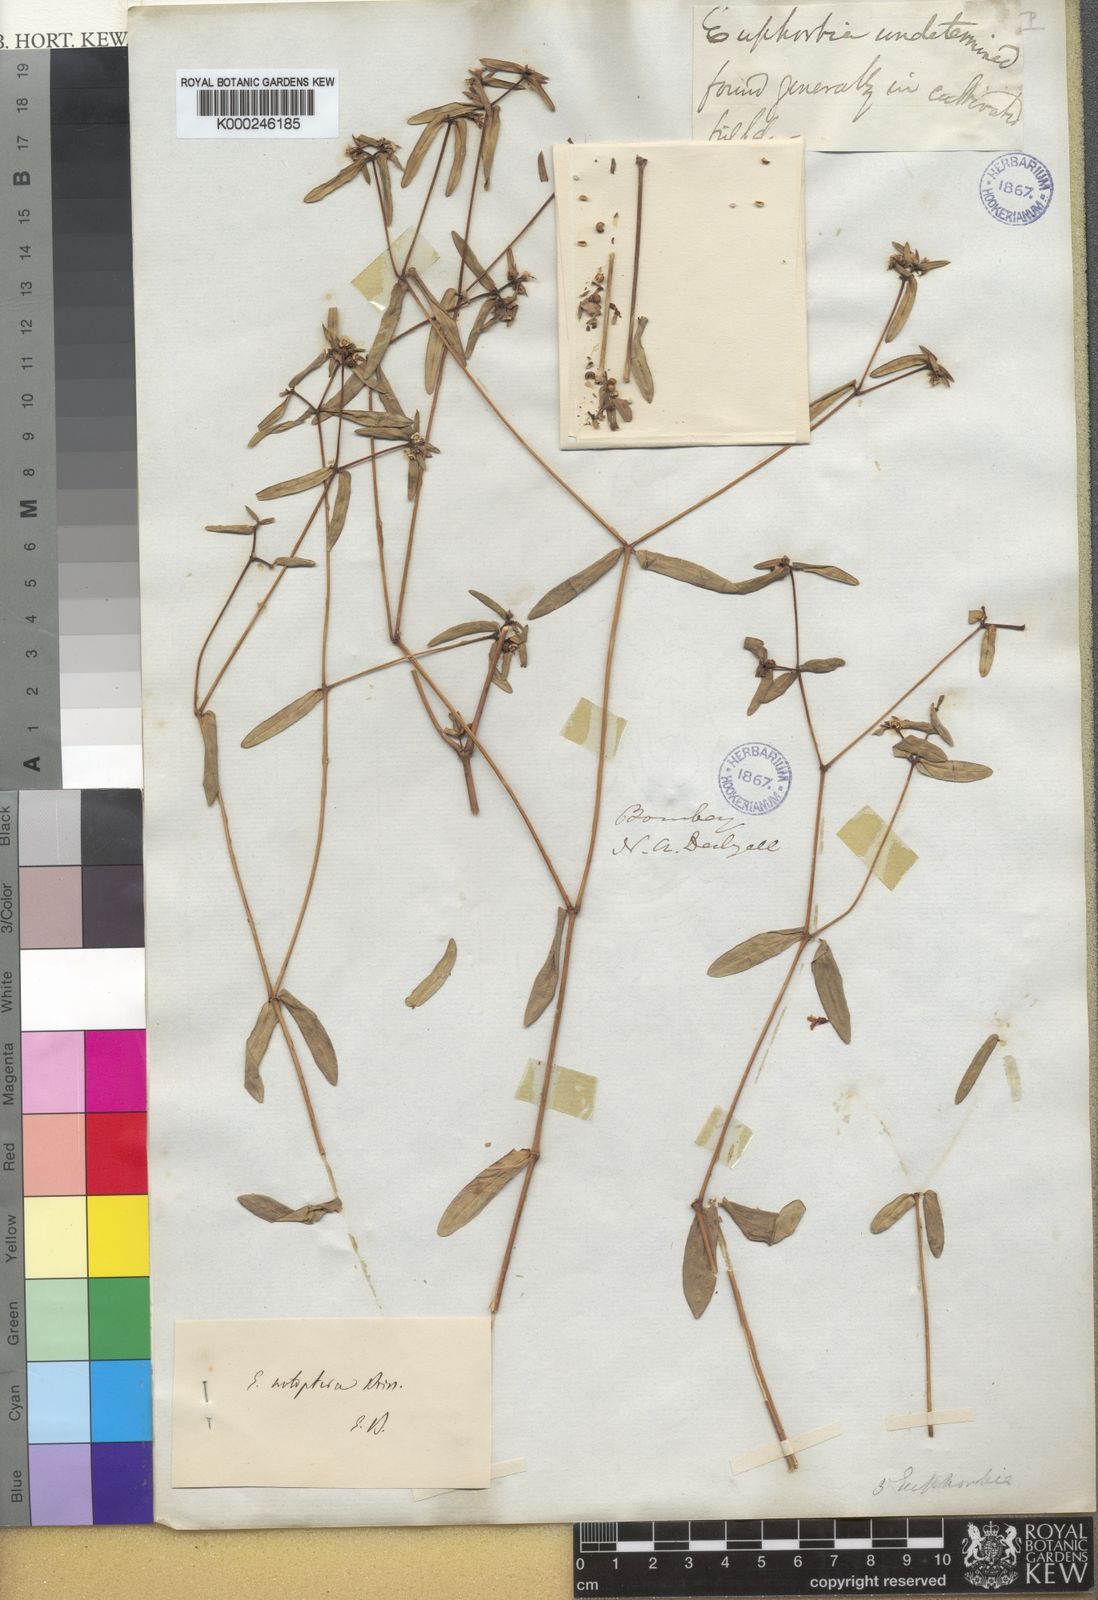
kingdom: Plantae
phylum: Tracheophyta
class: Magnoliopsida
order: Malpighiales
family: Euphorbiaceae
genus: Euphorbia
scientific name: Euphorbia notoptera
